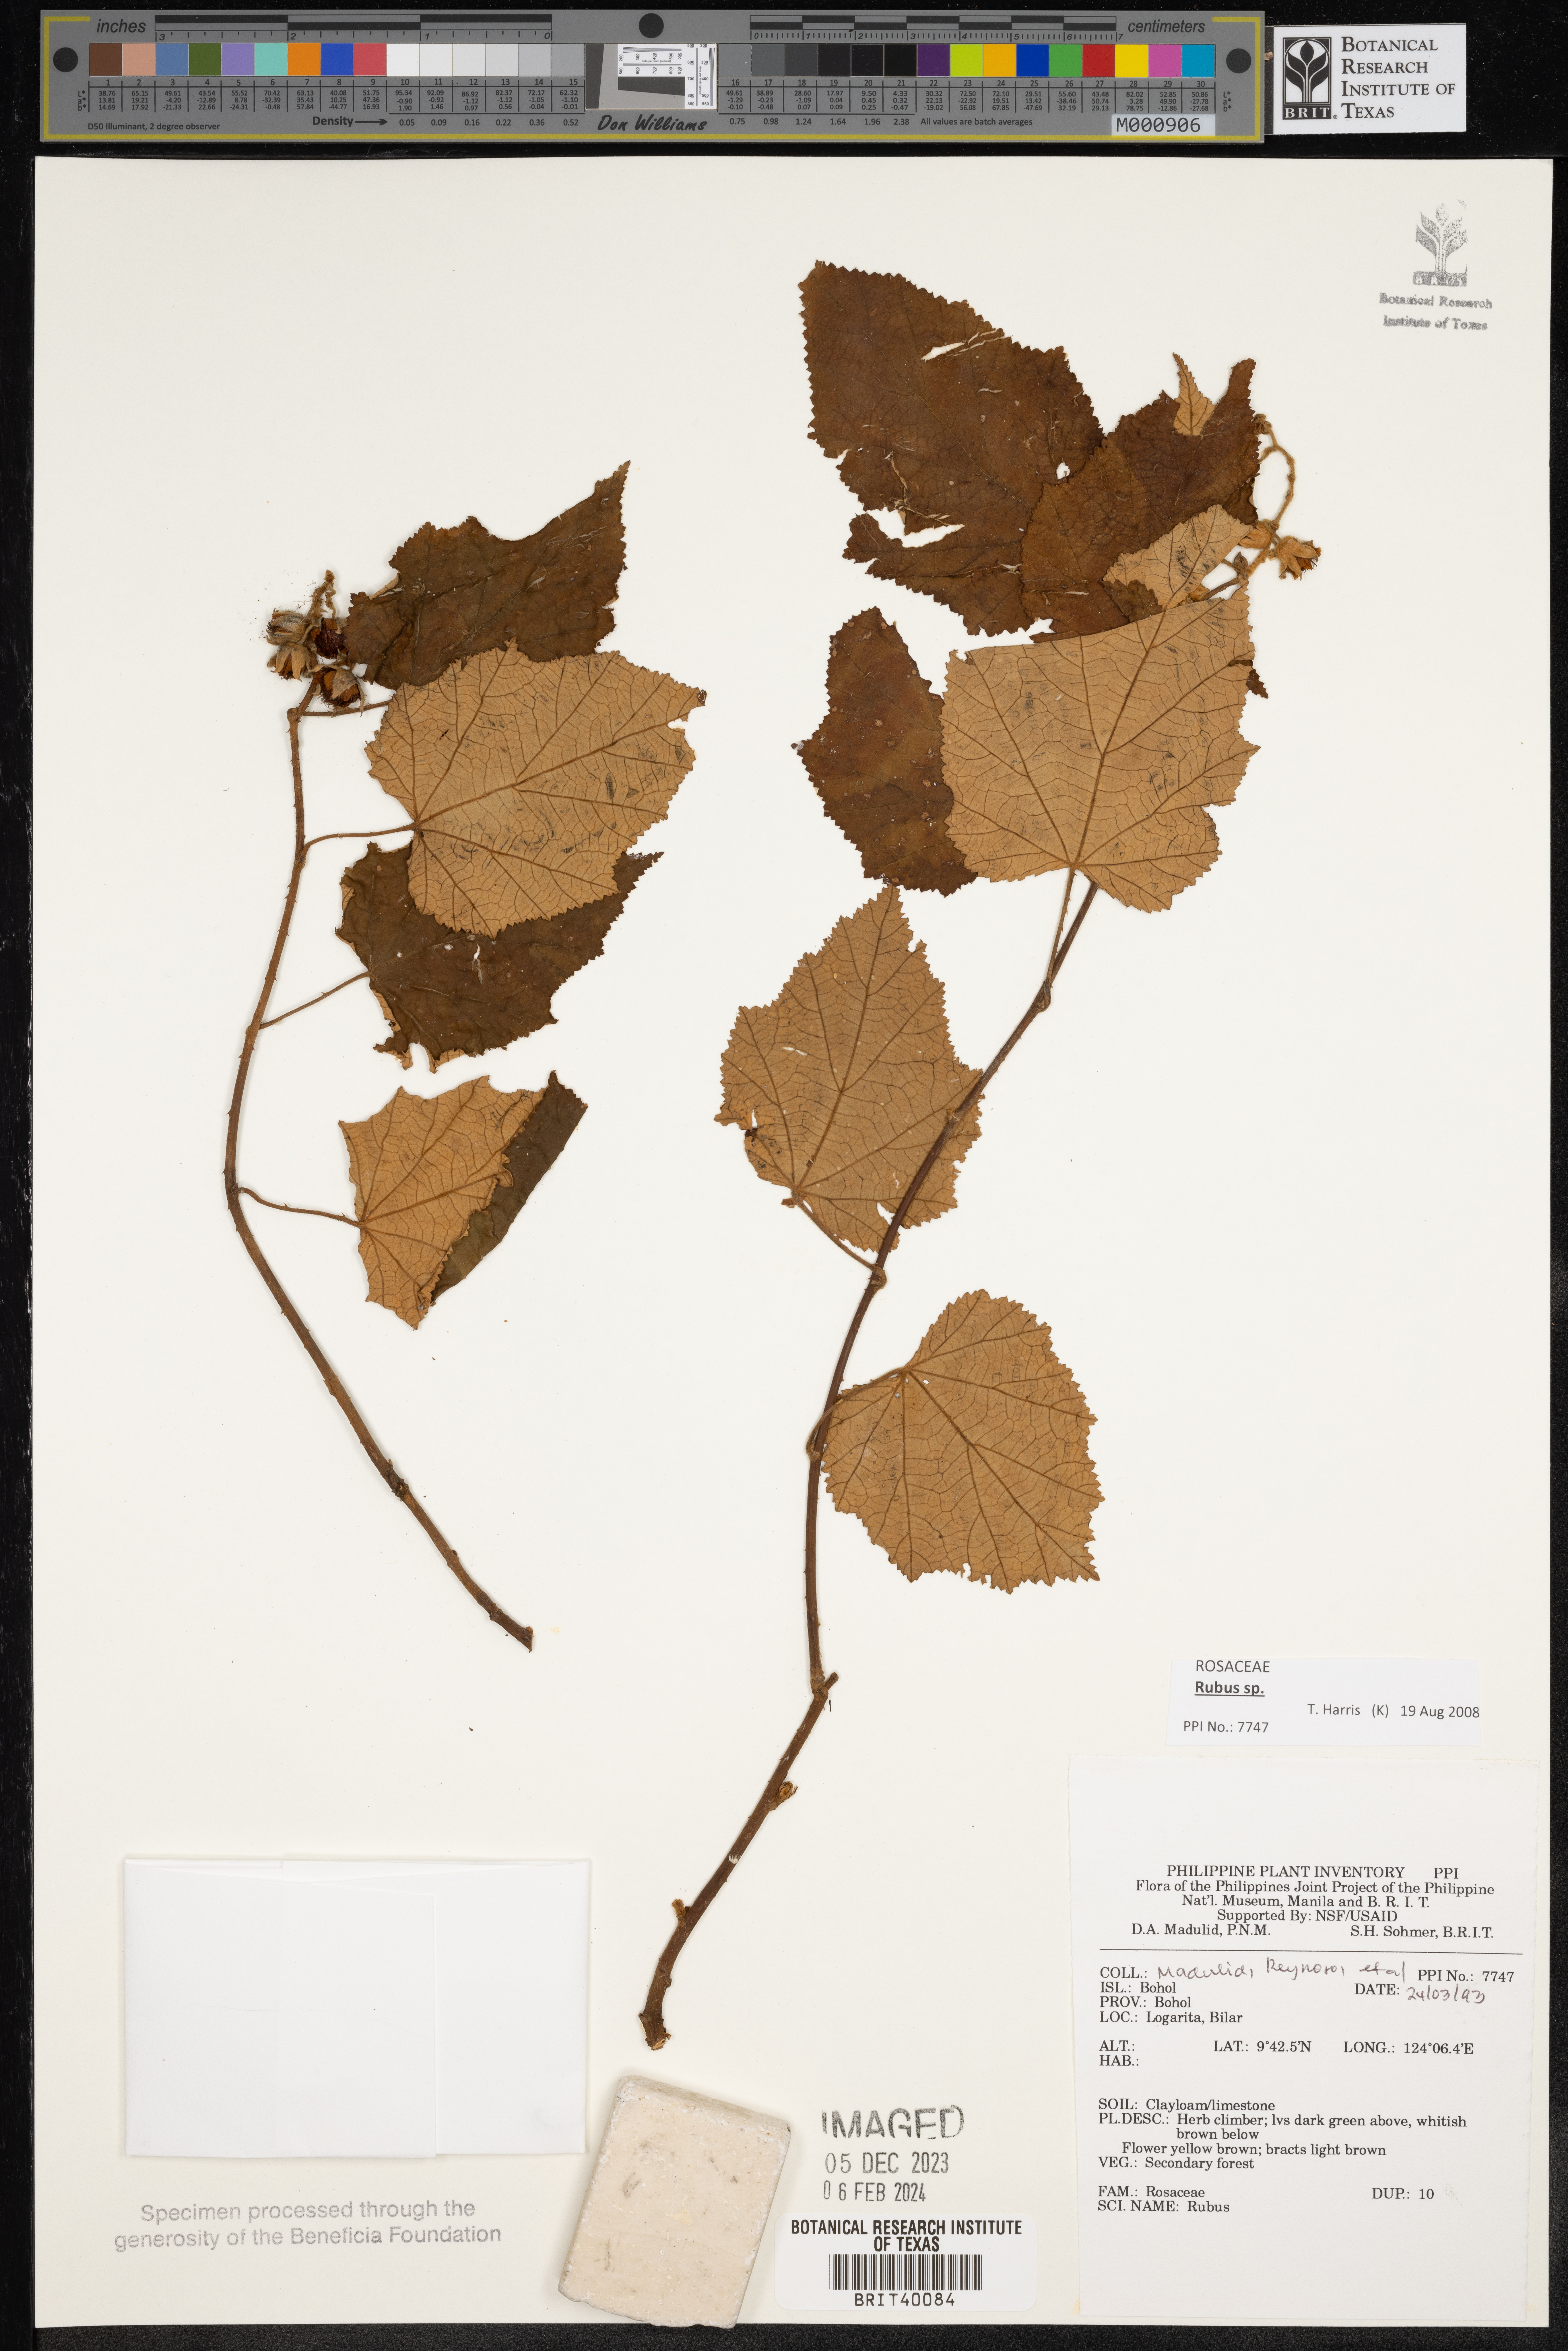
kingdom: Plantae
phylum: Tracheophyta
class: Magnoliopsida
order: Rosales
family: Rosaceae
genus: Rubus
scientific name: Rubus
